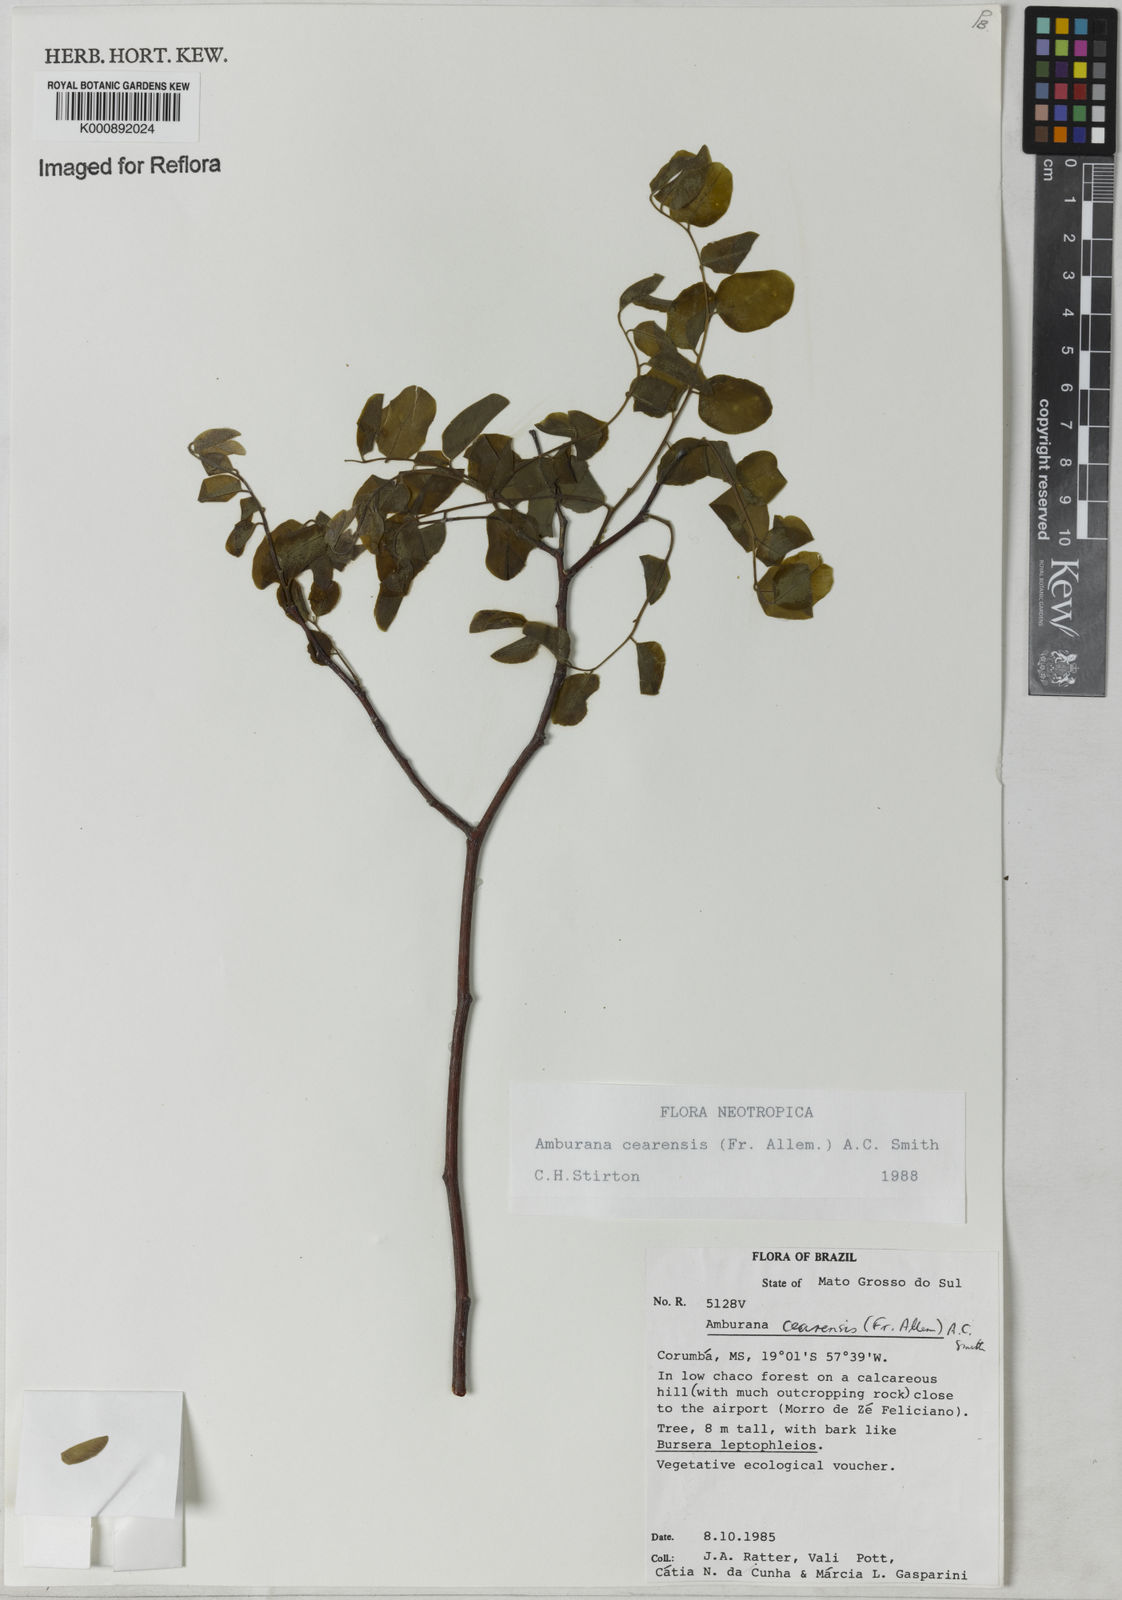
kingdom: Plantae
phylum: Tracheophyta
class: Magnoliopsida
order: Fabales
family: Fabaceae
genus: Amburana
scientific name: Amburana
